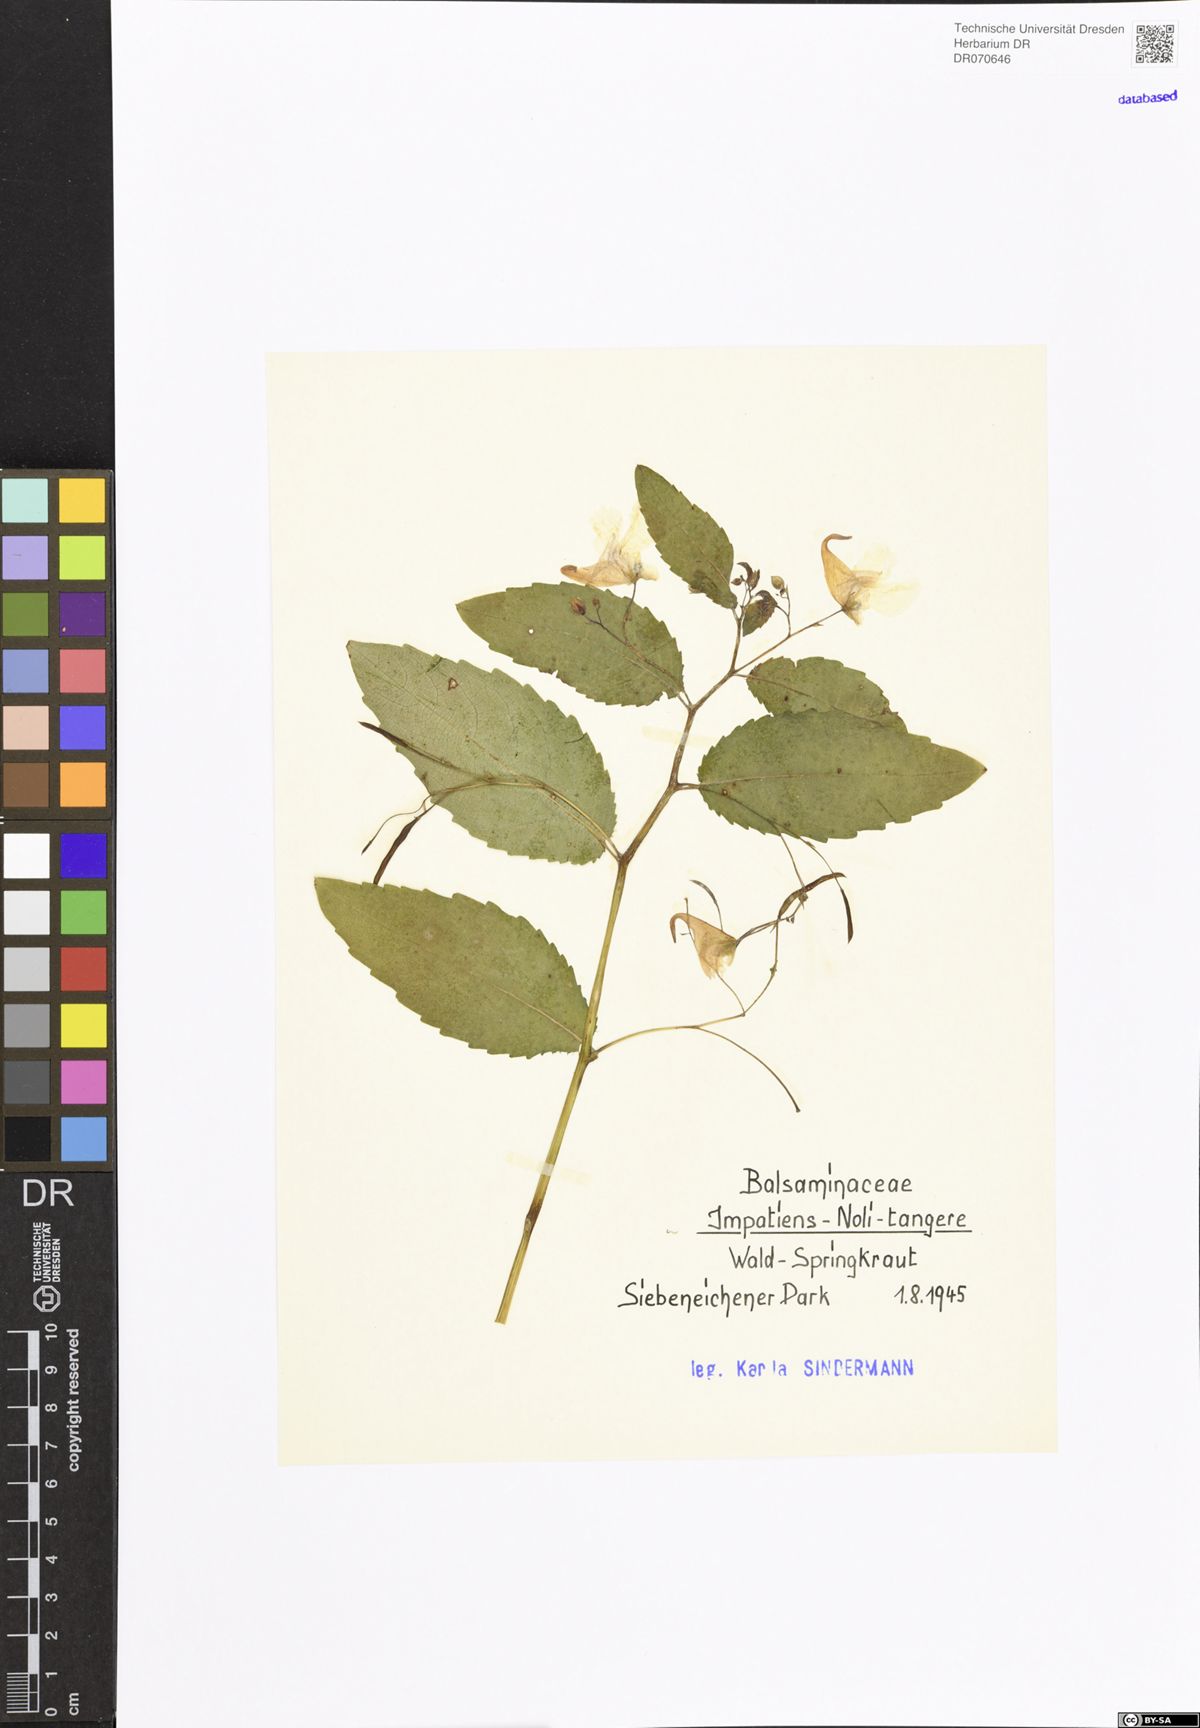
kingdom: Plantae
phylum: Tracheophyta
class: Magnoliopsida
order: Ericales
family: Balsaminaceae
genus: Impatiens
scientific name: Impatiens noli-tangere
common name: Touch-me-not balsam
